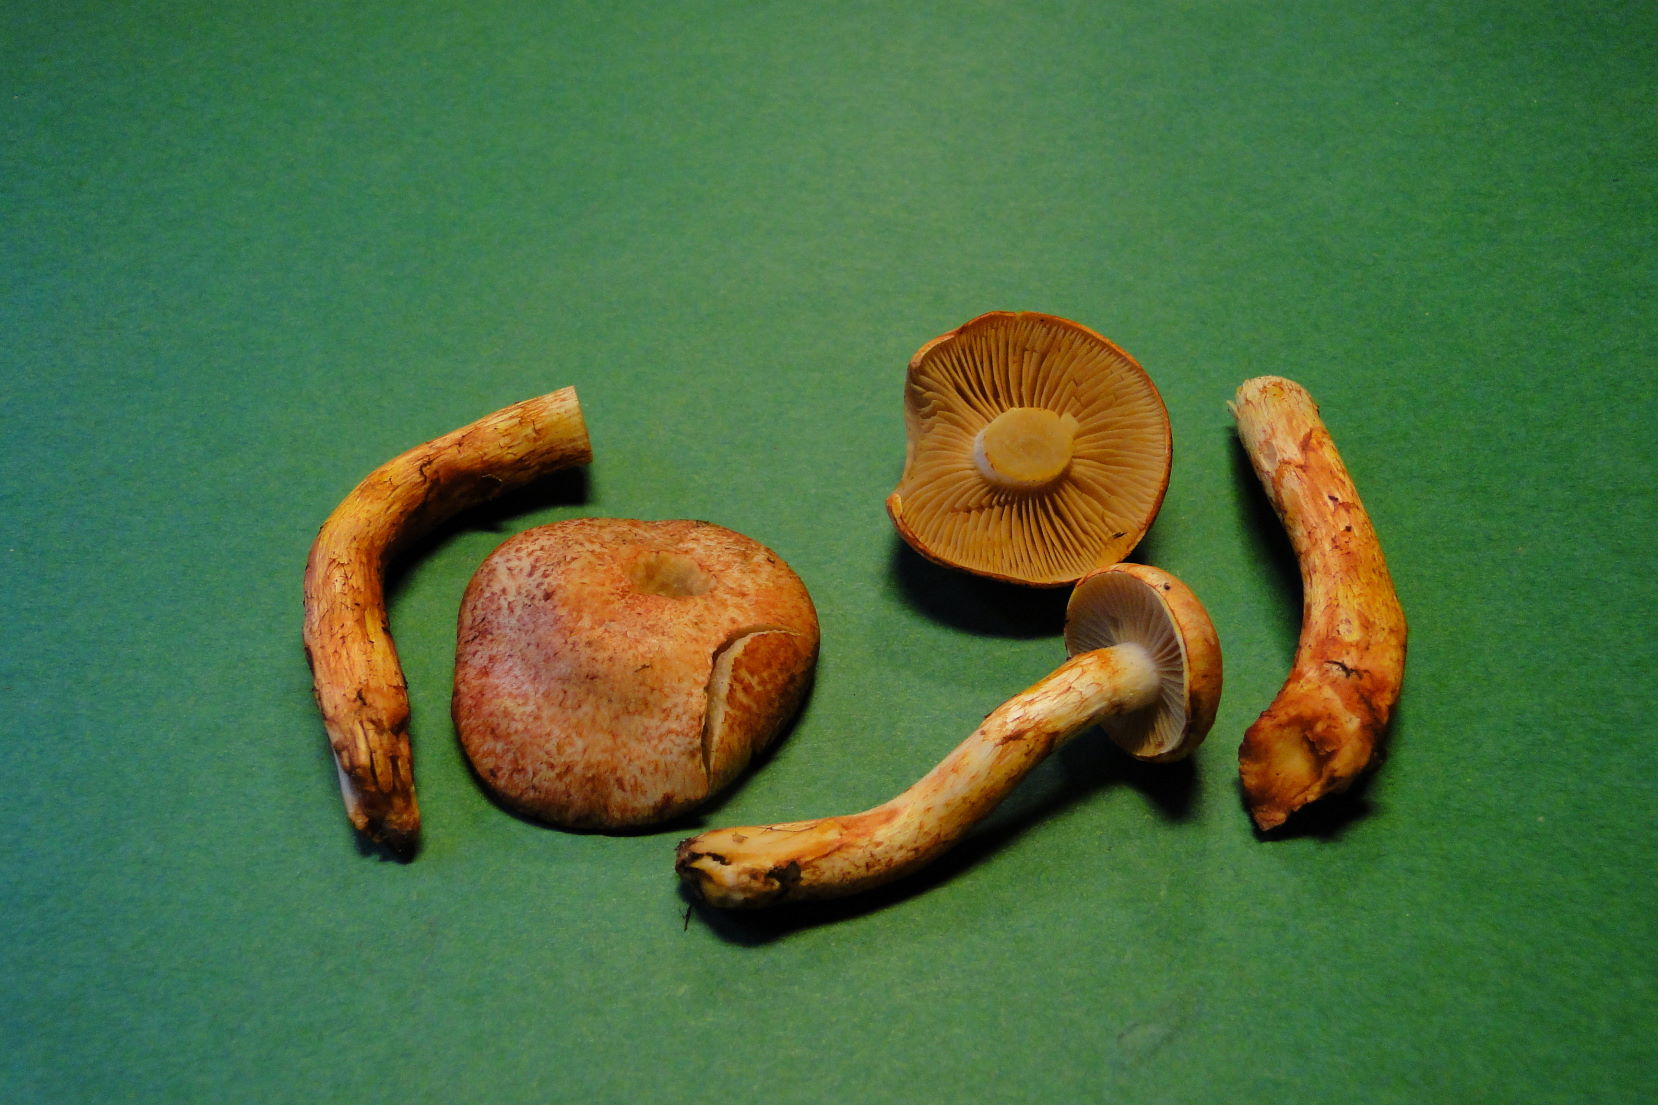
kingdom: Fungi
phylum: Basidiomycota
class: Agaricomycetes
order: Agaricales
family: Cortinariaceae
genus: Cortinarius
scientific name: Cortinarius bolaris
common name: cinnoberskællet slørhat
